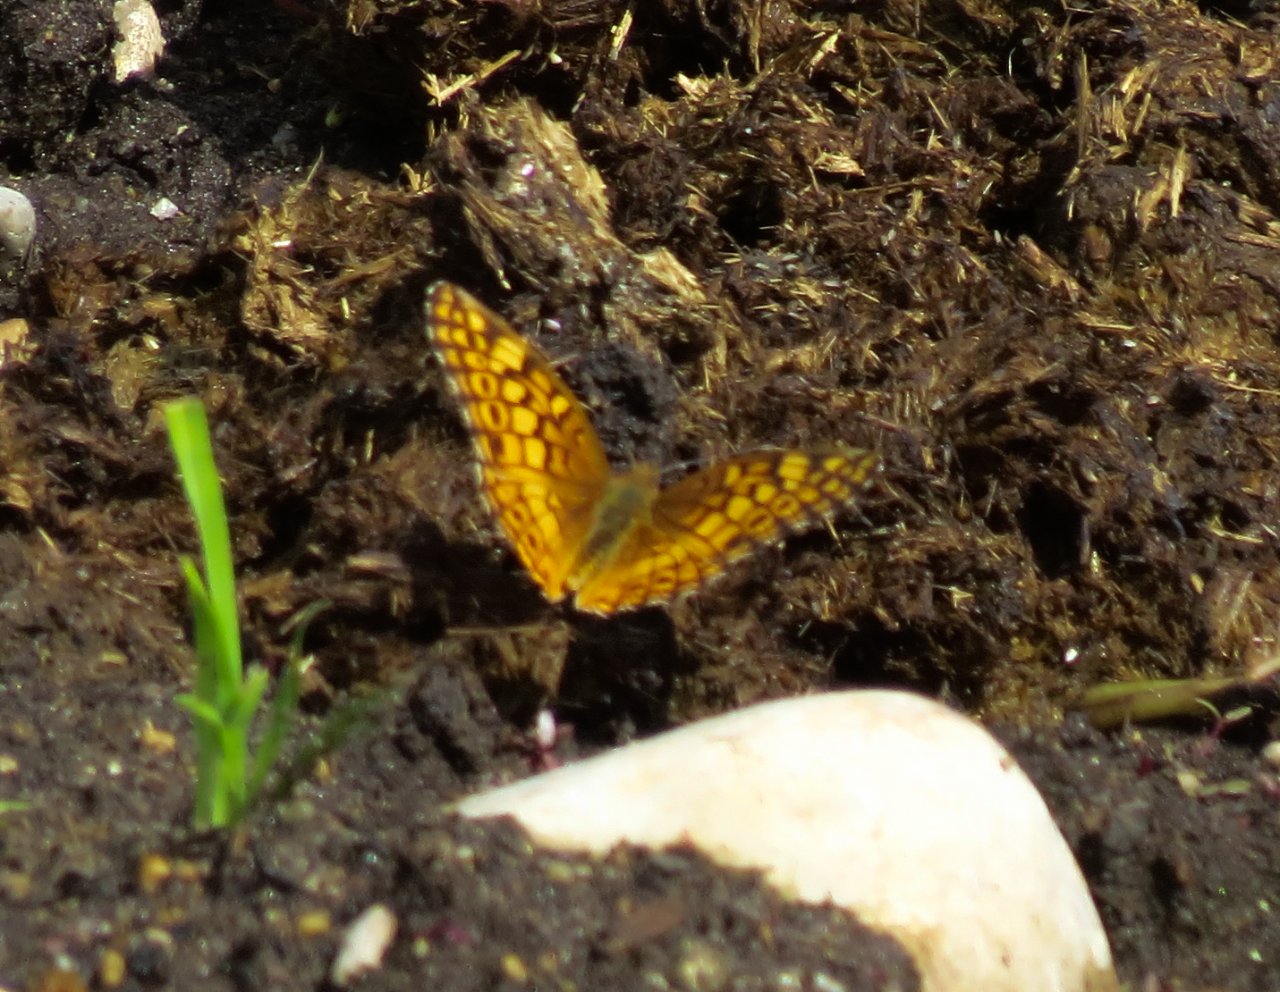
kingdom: Animalia
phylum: Arthropoda
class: Insecta
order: Lepidoptera
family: Nymphalidae
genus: Euptoieta
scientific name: Euptoieta claudia
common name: Variegated Fritillary
